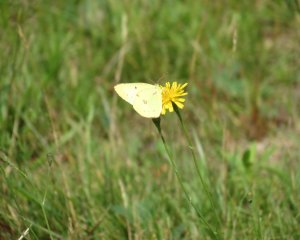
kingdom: Animalia
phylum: Arthropoda
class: Insecta
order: Lepidoptera
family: Pieridae
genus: Colias
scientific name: Colias philodice
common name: Clouded Sulphur
